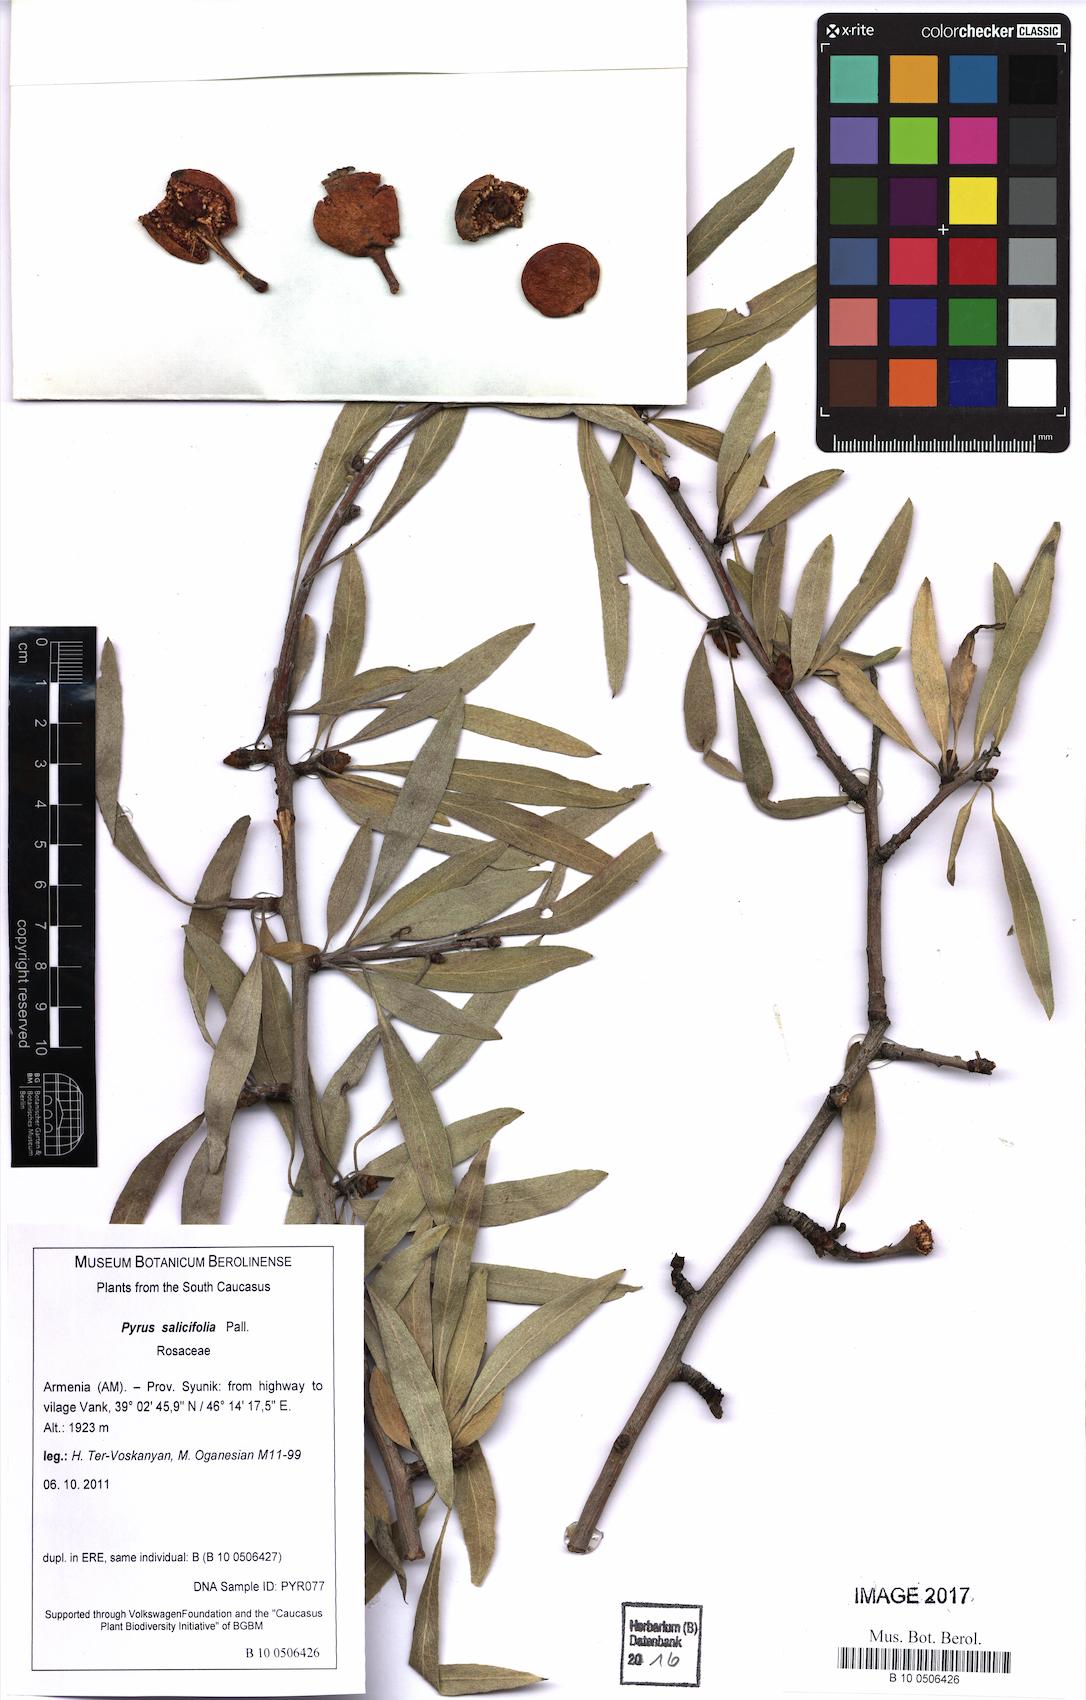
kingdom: Plantae
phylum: Tracheophyta
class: Magnoliopsida
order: Rosales
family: Rosaceae
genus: Pyrus
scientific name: Pyrus salicifolia
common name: Willow-leaved pear
